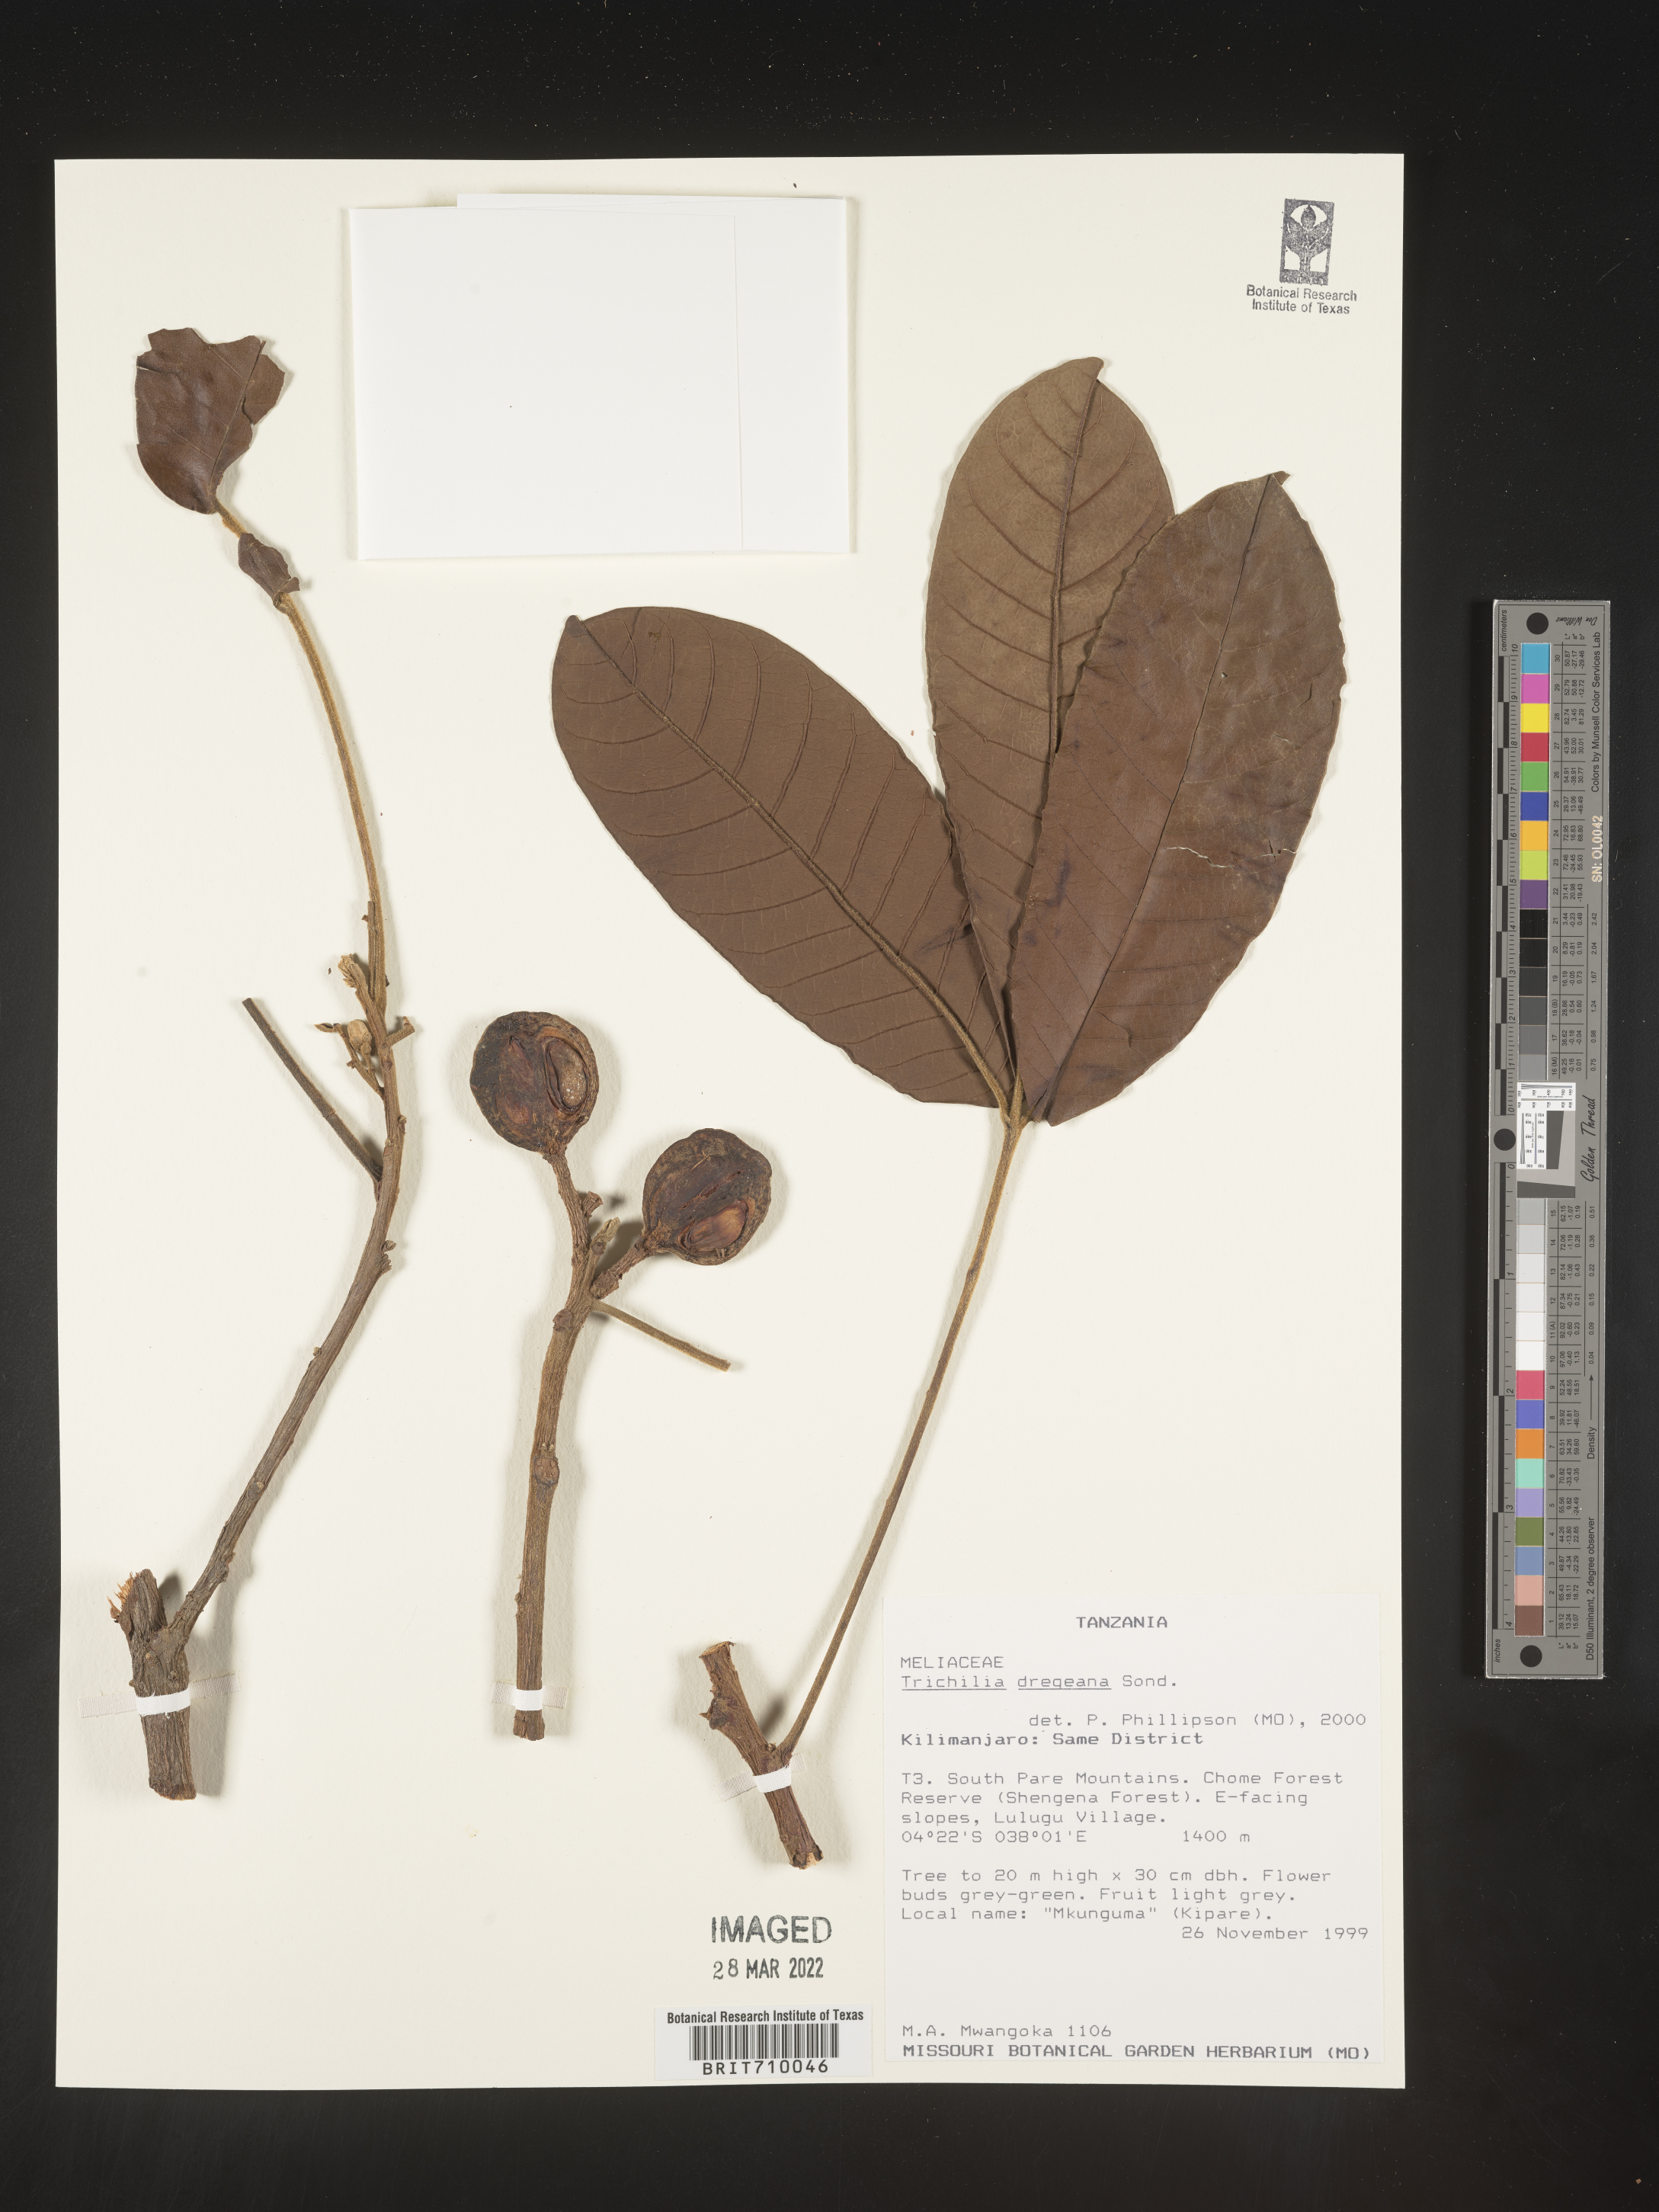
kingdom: Plantae
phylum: Tracheophyta
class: Magnoliopsida
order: Sapindales
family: Meliaceae
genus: Trichilia
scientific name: Trichilia
